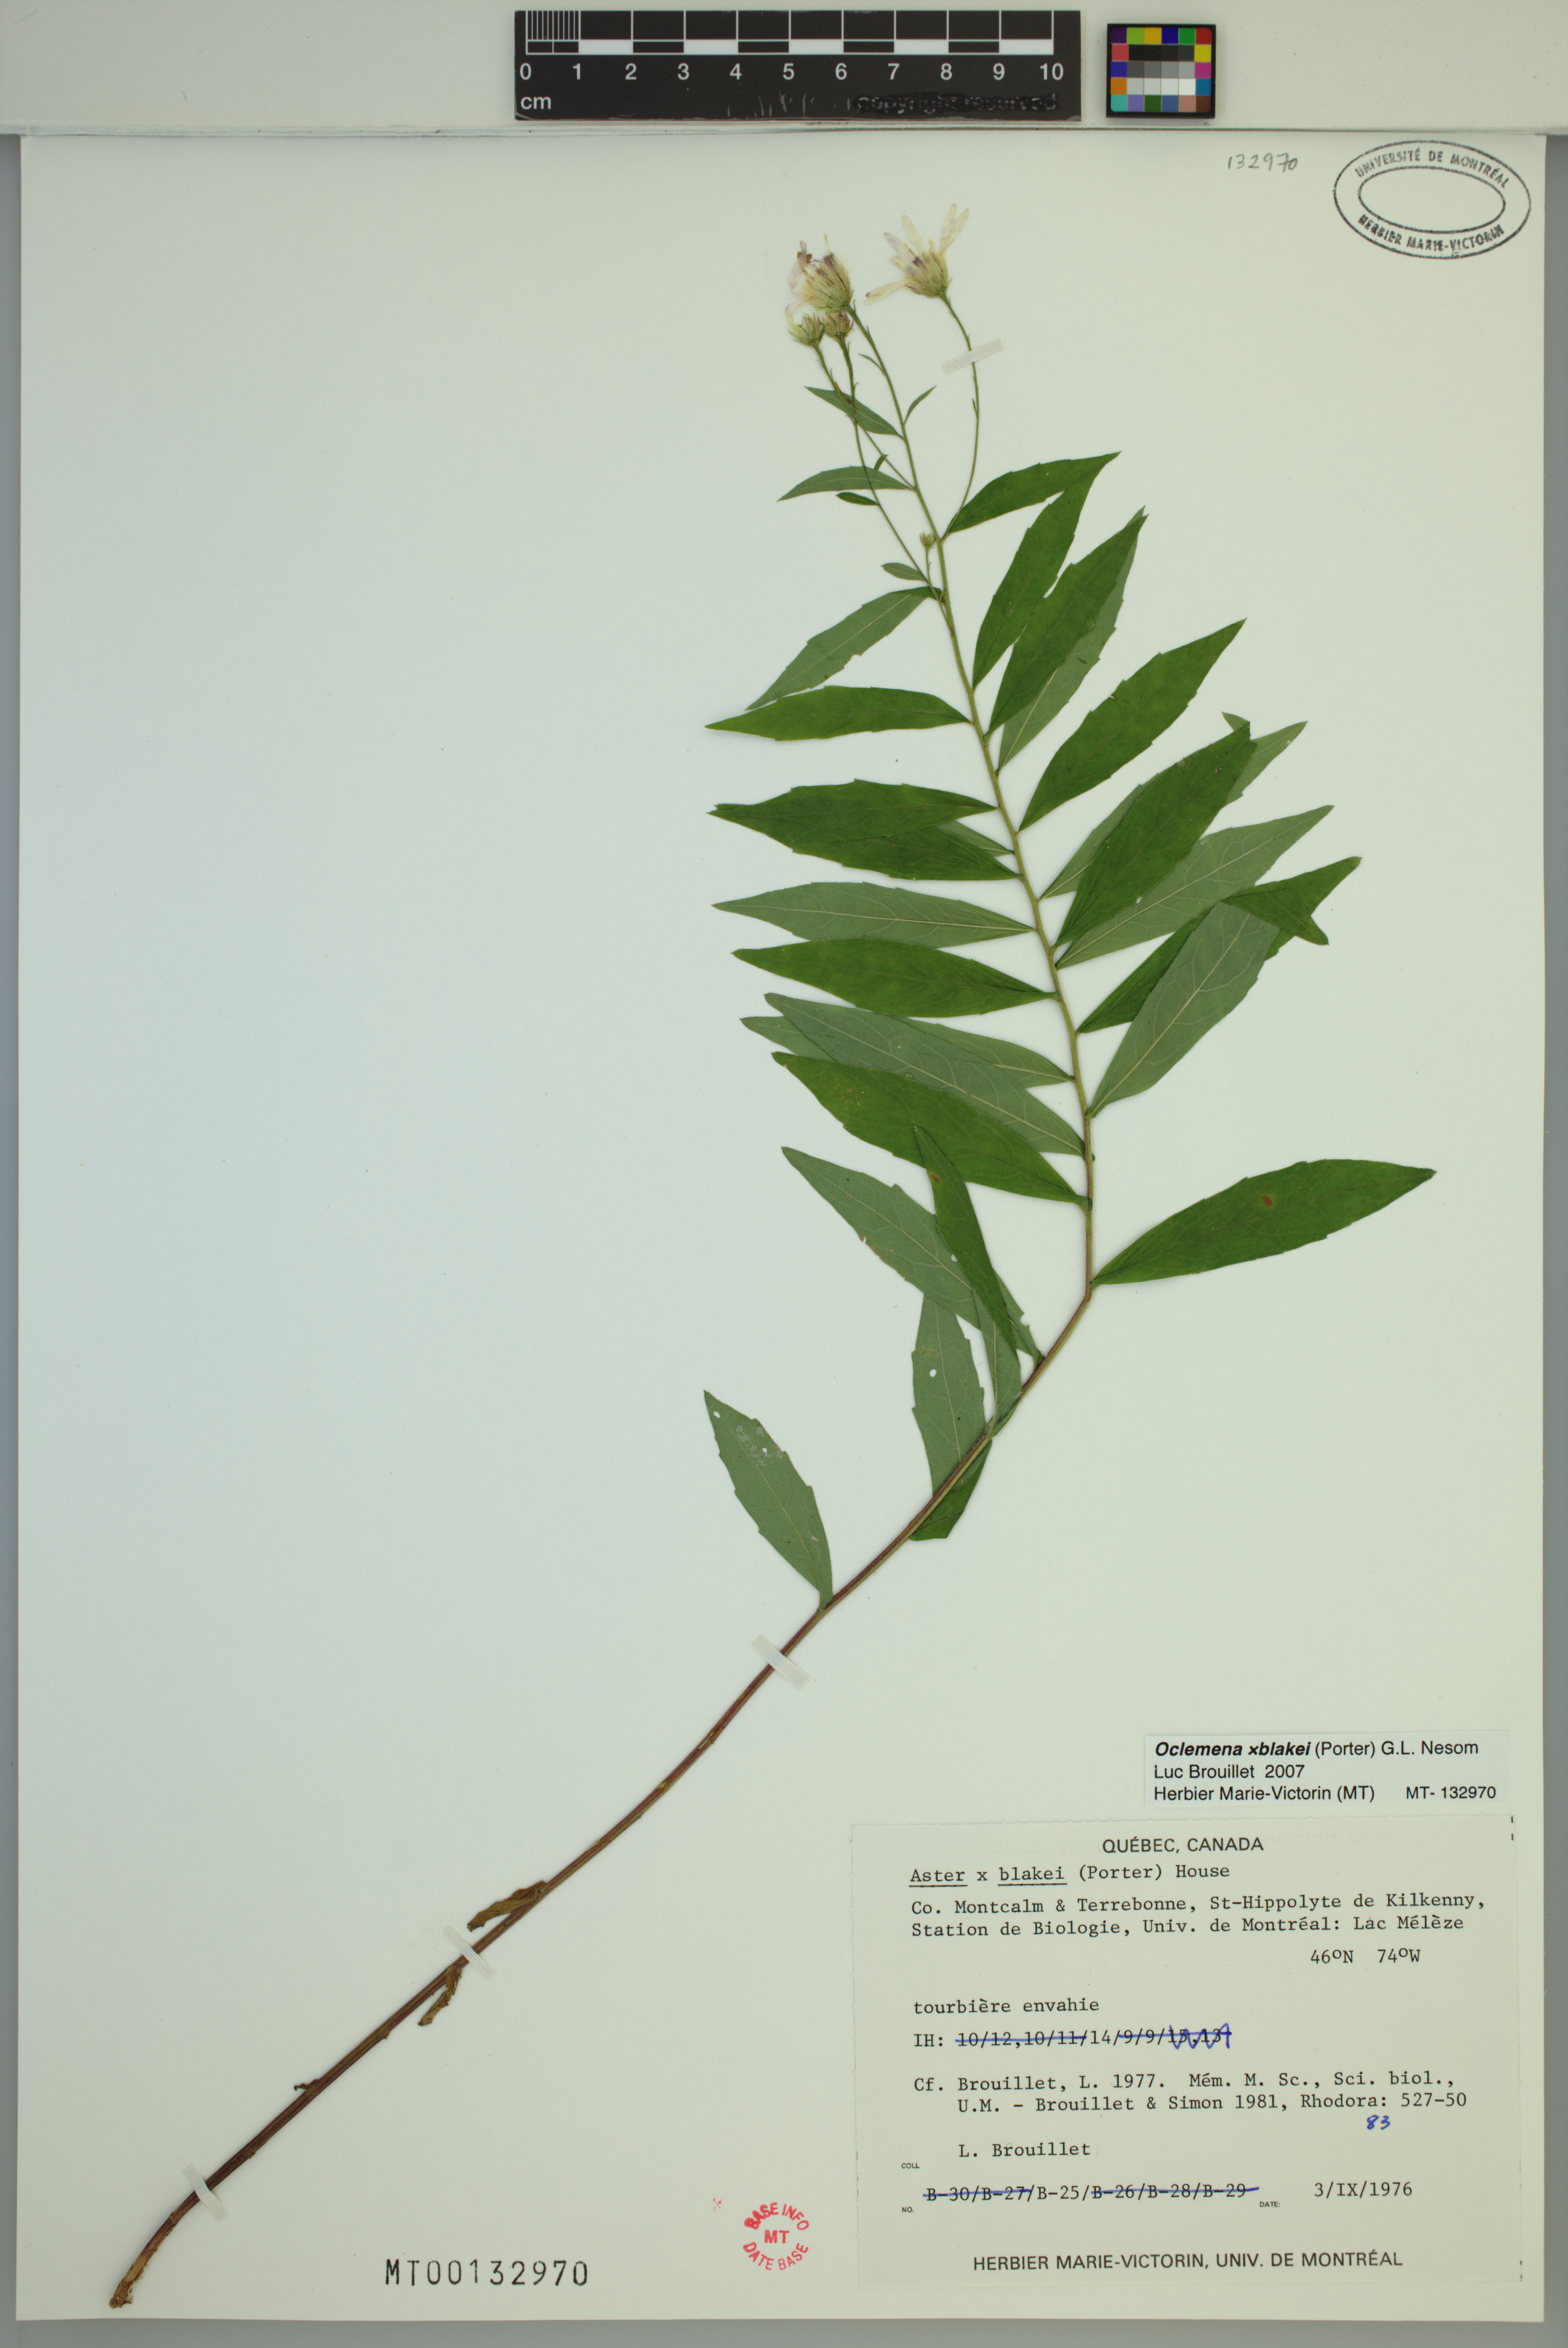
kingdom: Plantae
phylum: Tracheophyta
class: Magnoliopsida
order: Asterales
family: Asteraceae
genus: Oclemena
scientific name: Oclemena blakei
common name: Blake's aster
